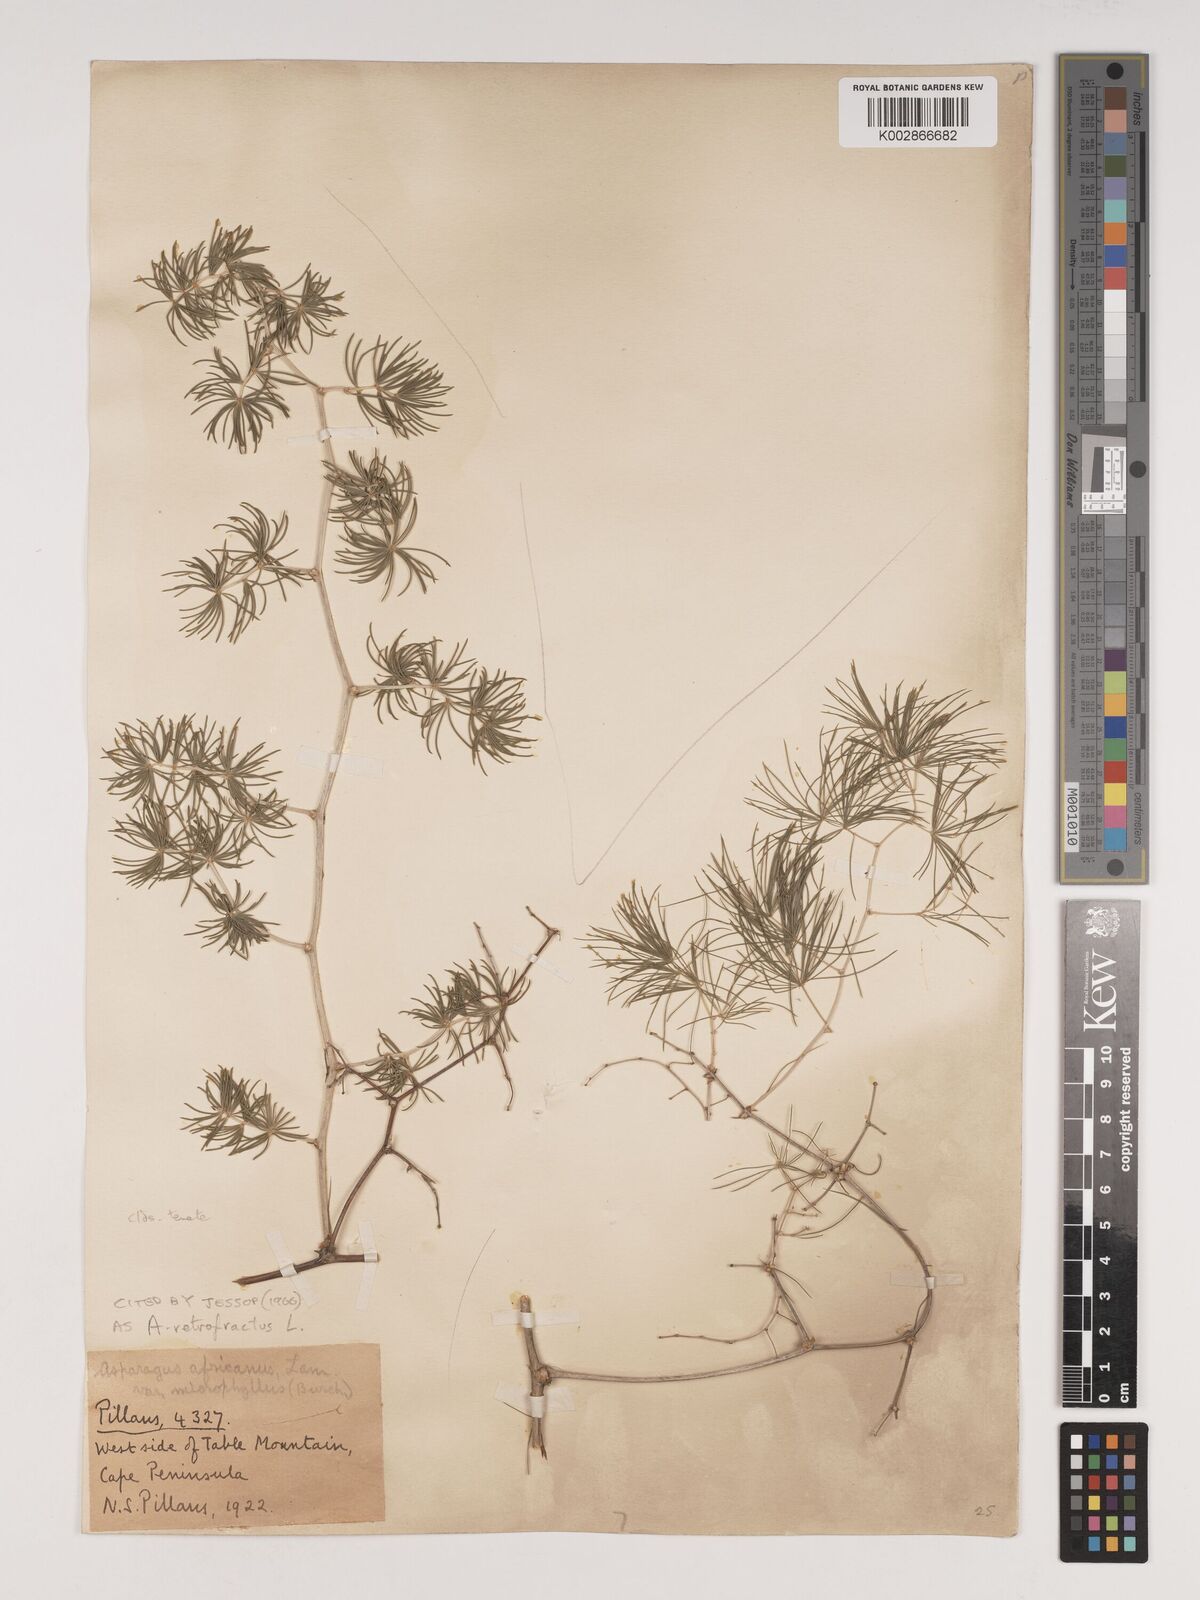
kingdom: Plantae
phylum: Tracheophyta
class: Liliopsida
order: Asparagales
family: Asparagaceae
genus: Asparagus
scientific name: Asparagus retrofractus
